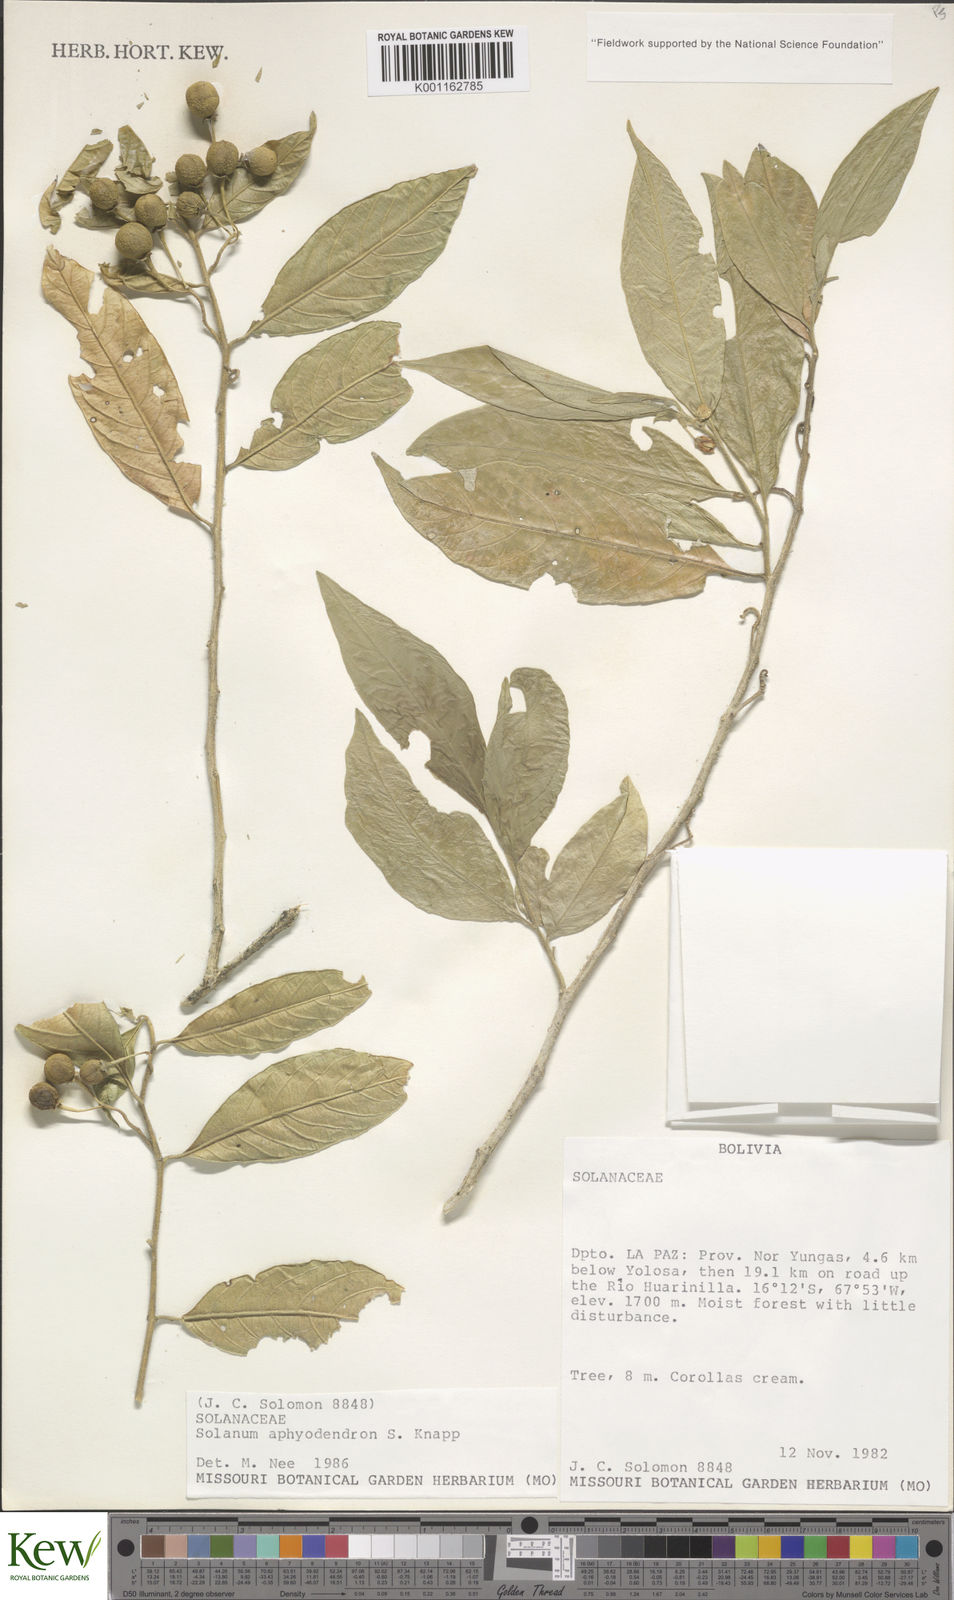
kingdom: Plantae
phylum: Tracheophyta
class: Magnoliopsida
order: Solanales
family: Solanaceae
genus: Solanum
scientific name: Solanum aphyodendron
